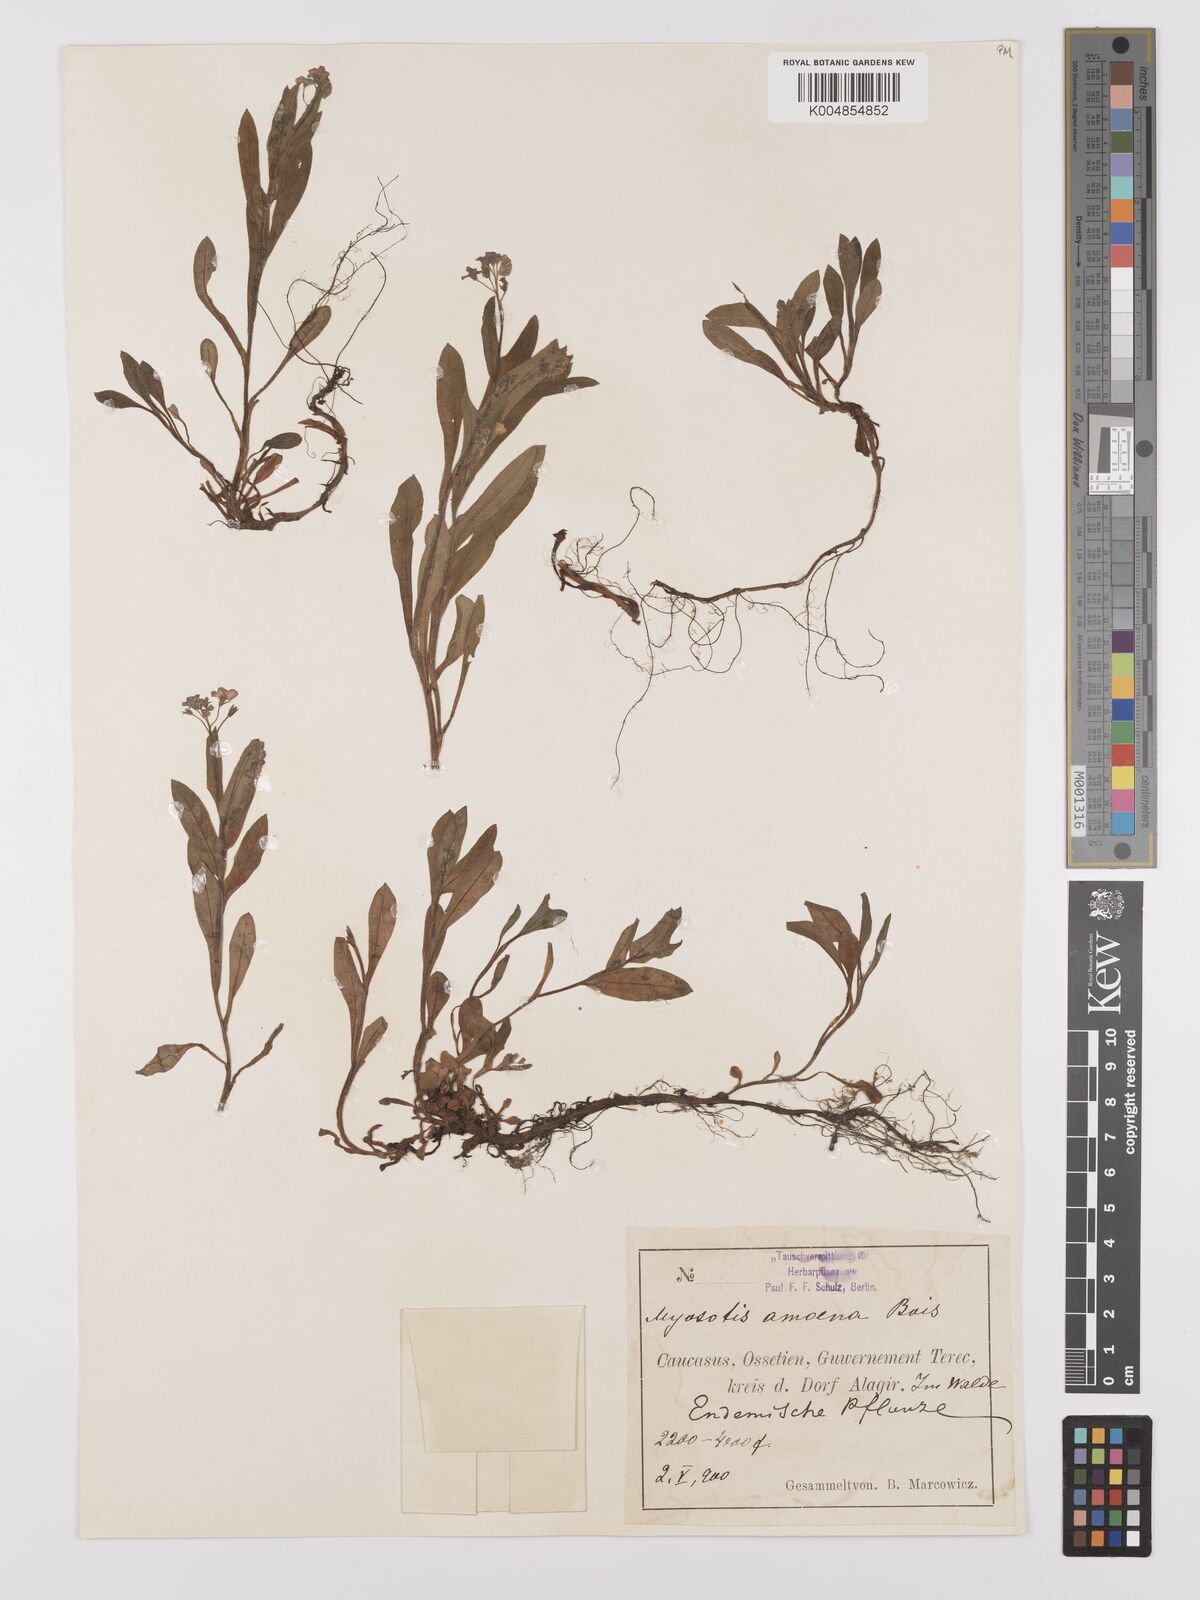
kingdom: Plantae
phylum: Tracheophyta
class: Magnoliopsida
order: Boraginales
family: Boraginaceae
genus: Myosotis
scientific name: Myosotis
